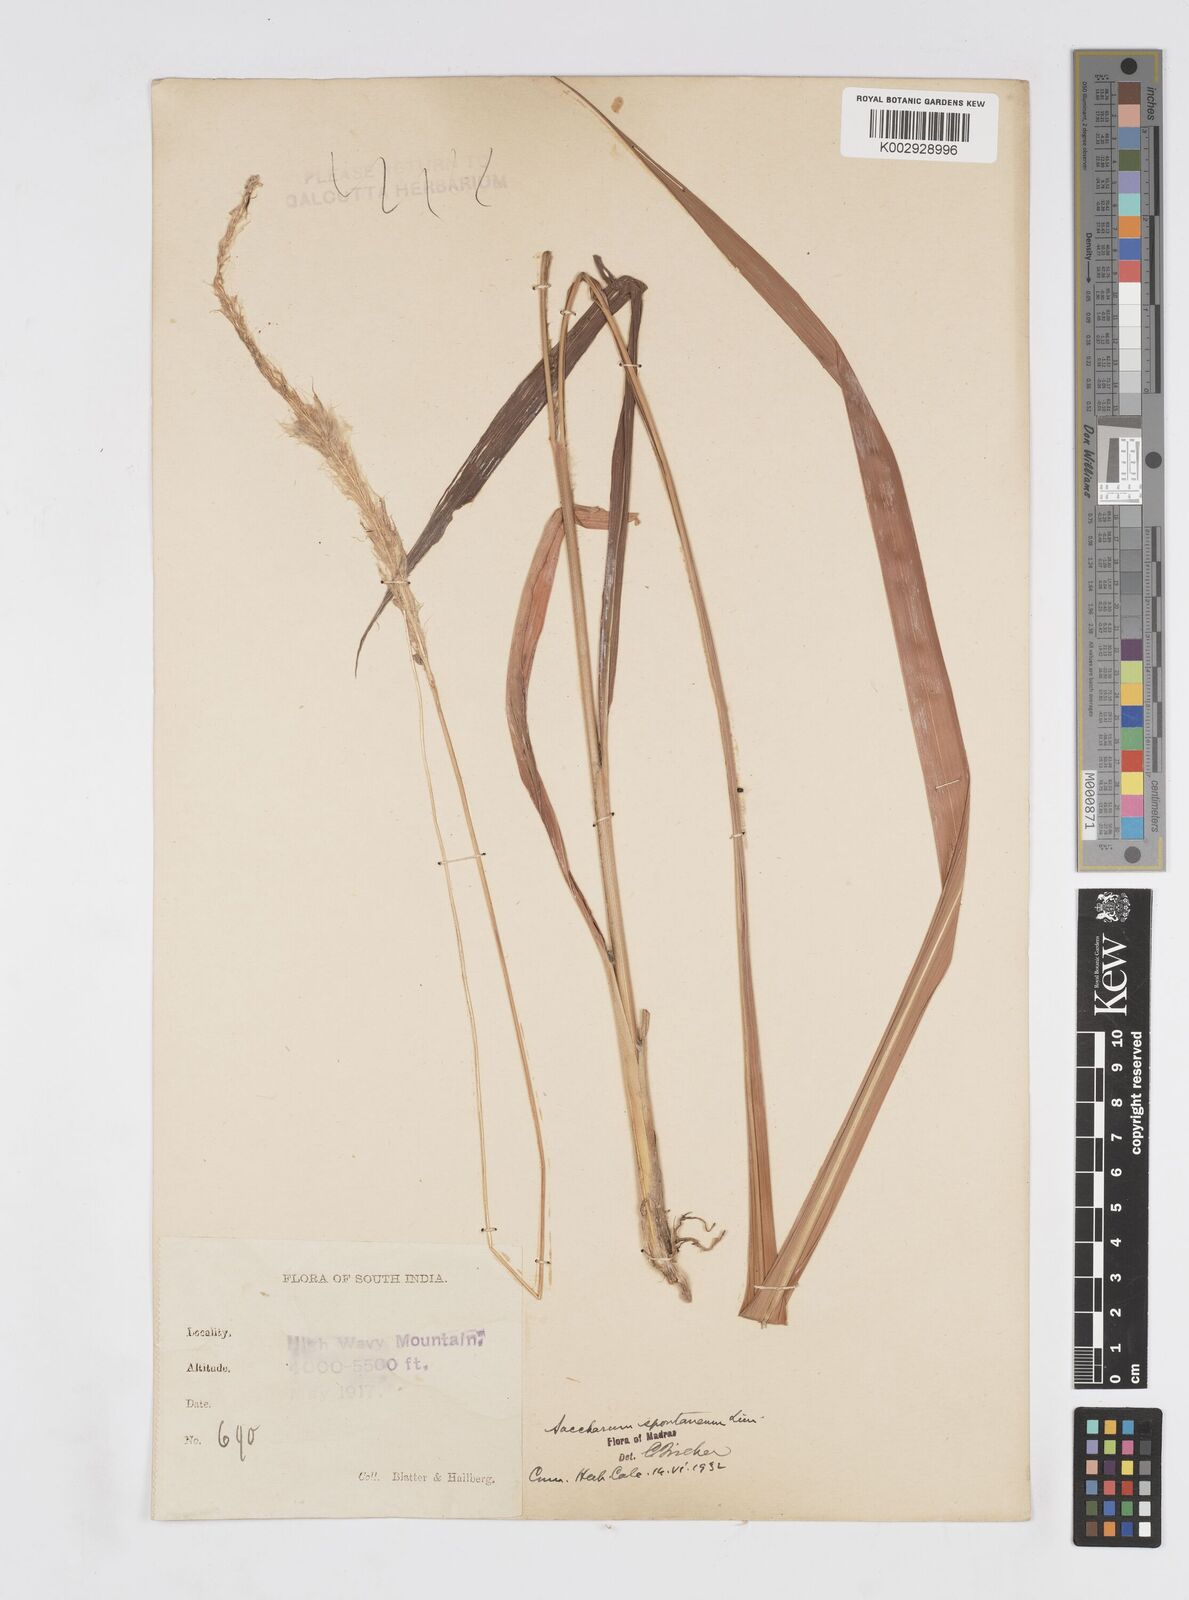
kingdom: Plantae
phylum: Tracheophyta
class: Liliopsida
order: Poales
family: Poaceae
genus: Saccharum
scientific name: Saccharum spontaneum
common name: Wild sugarcane
